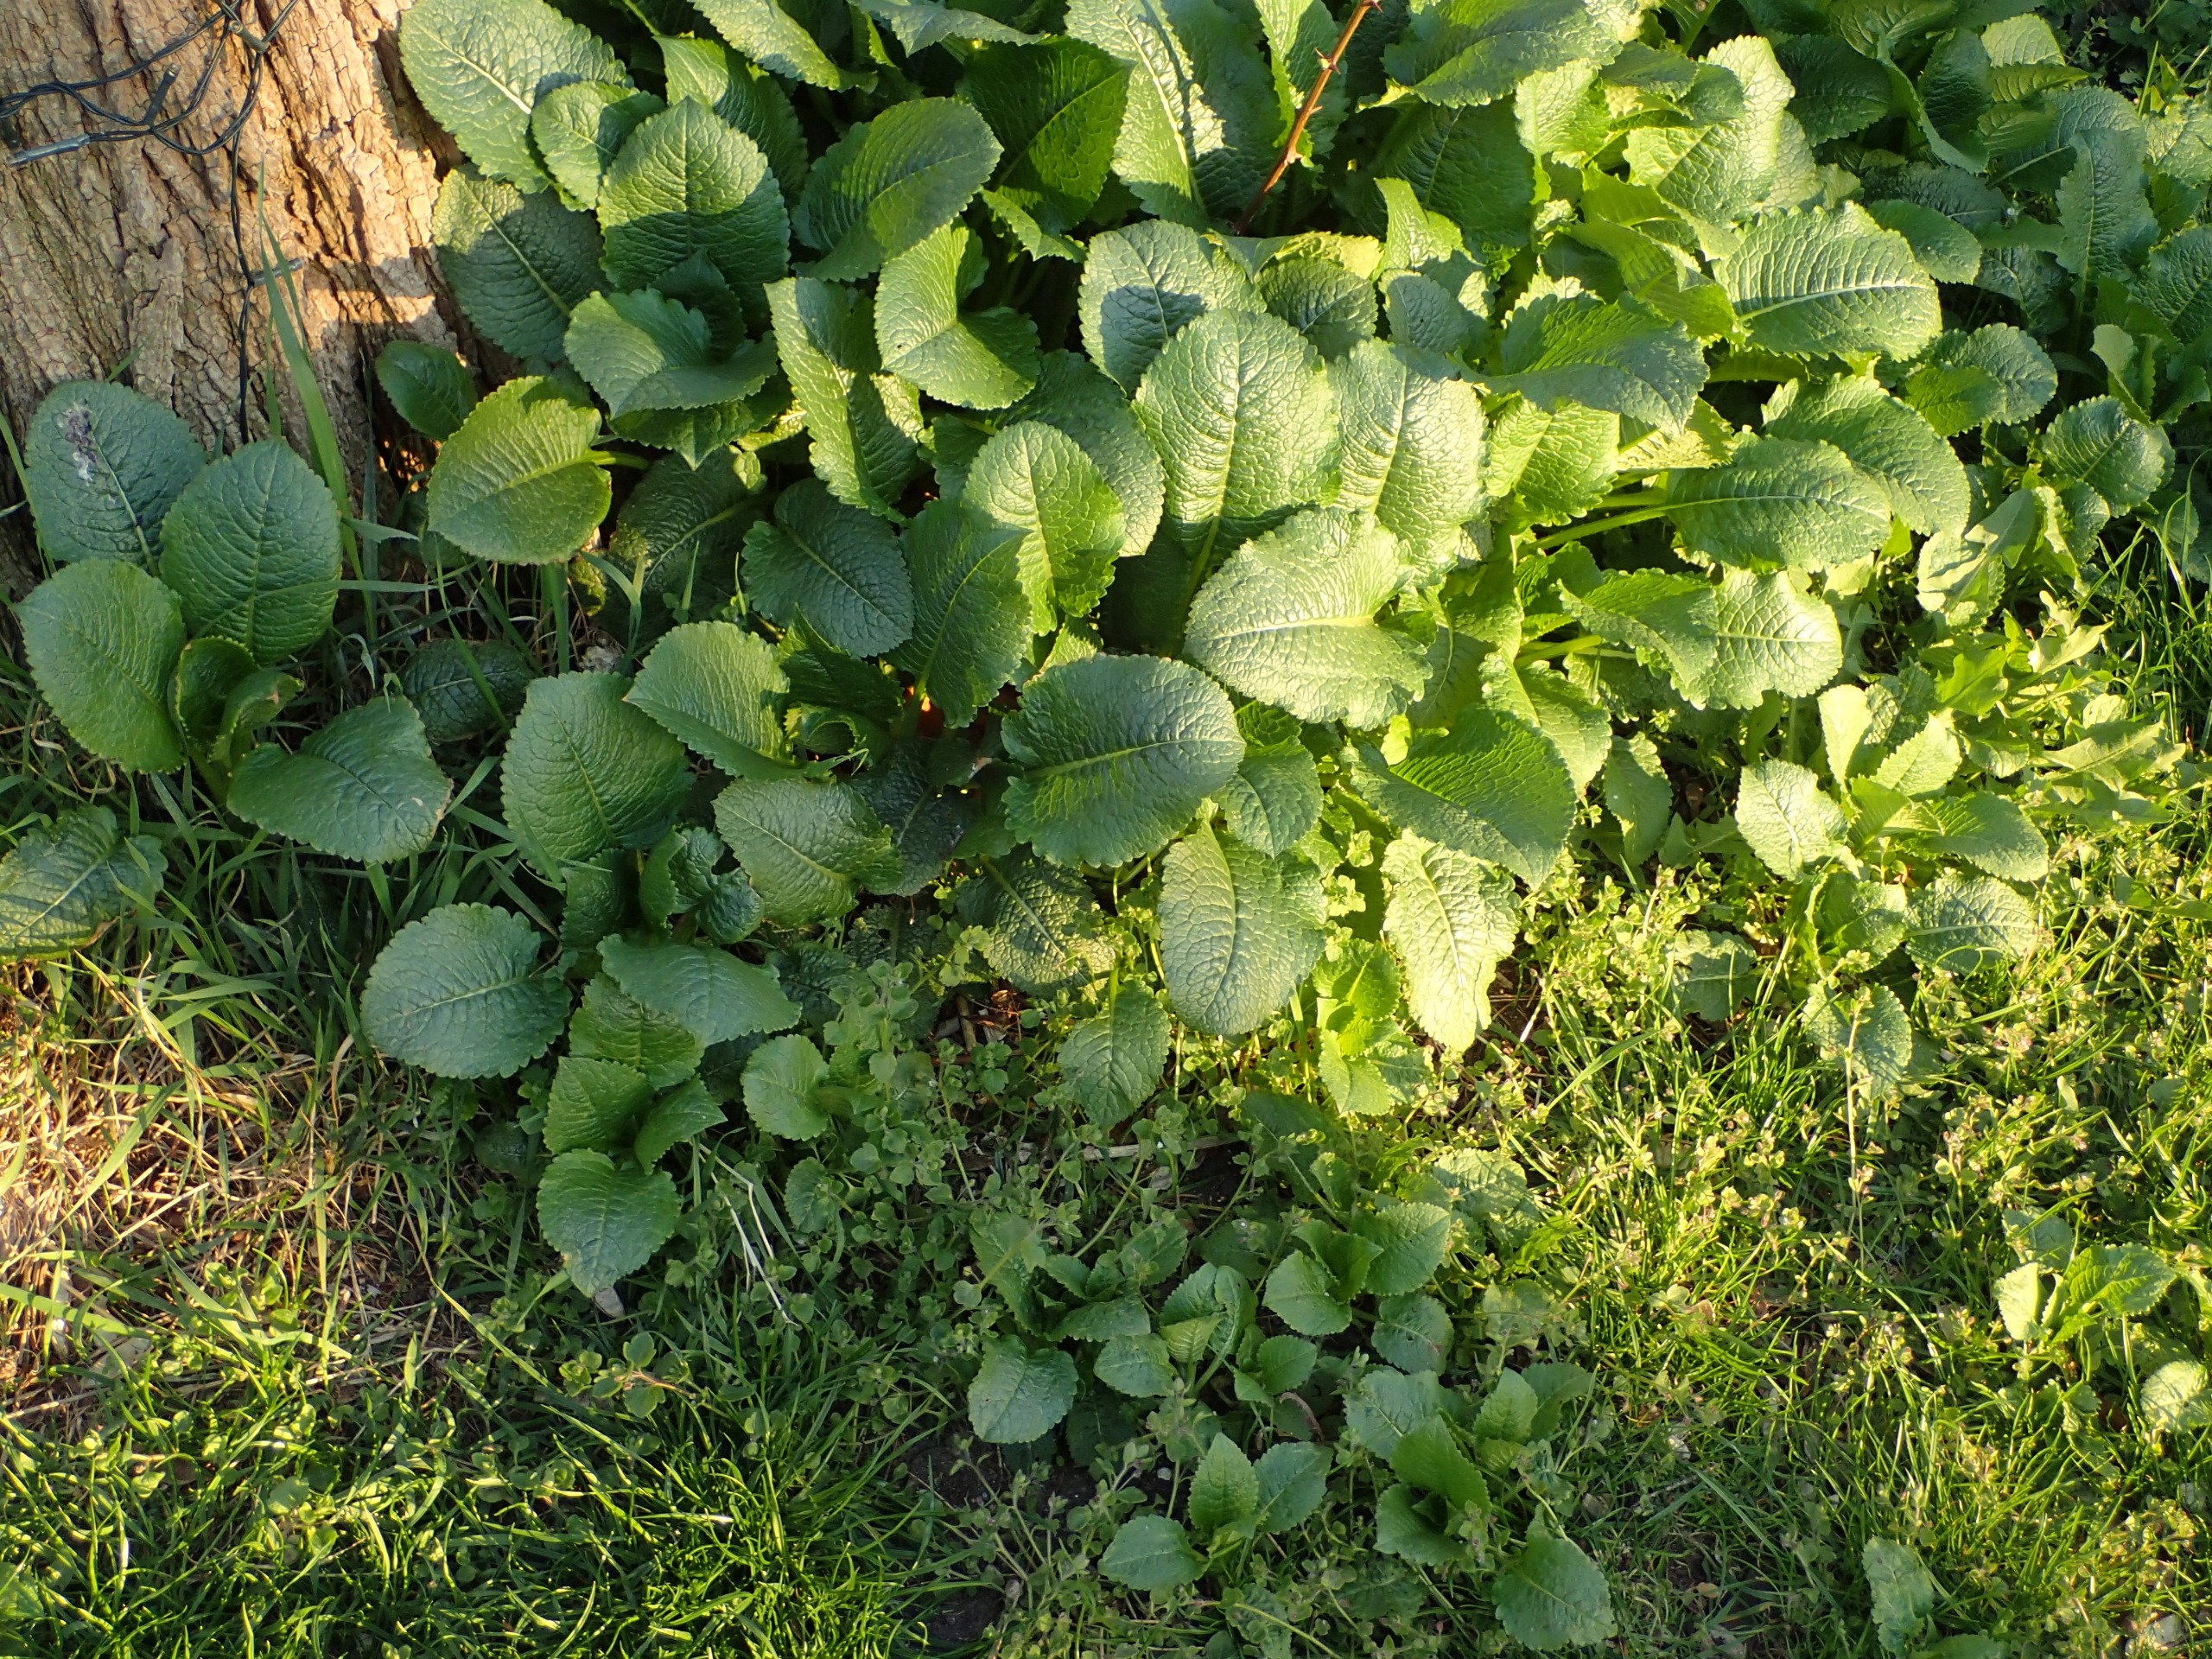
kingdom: Plantae
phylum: Tracheophyta
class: Magnoliopsida
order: Dipsacales
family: Caprifoliaceae
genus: Dipsacus
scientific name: Dipsacus strigosus
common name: Pindsvin-kartebolle
